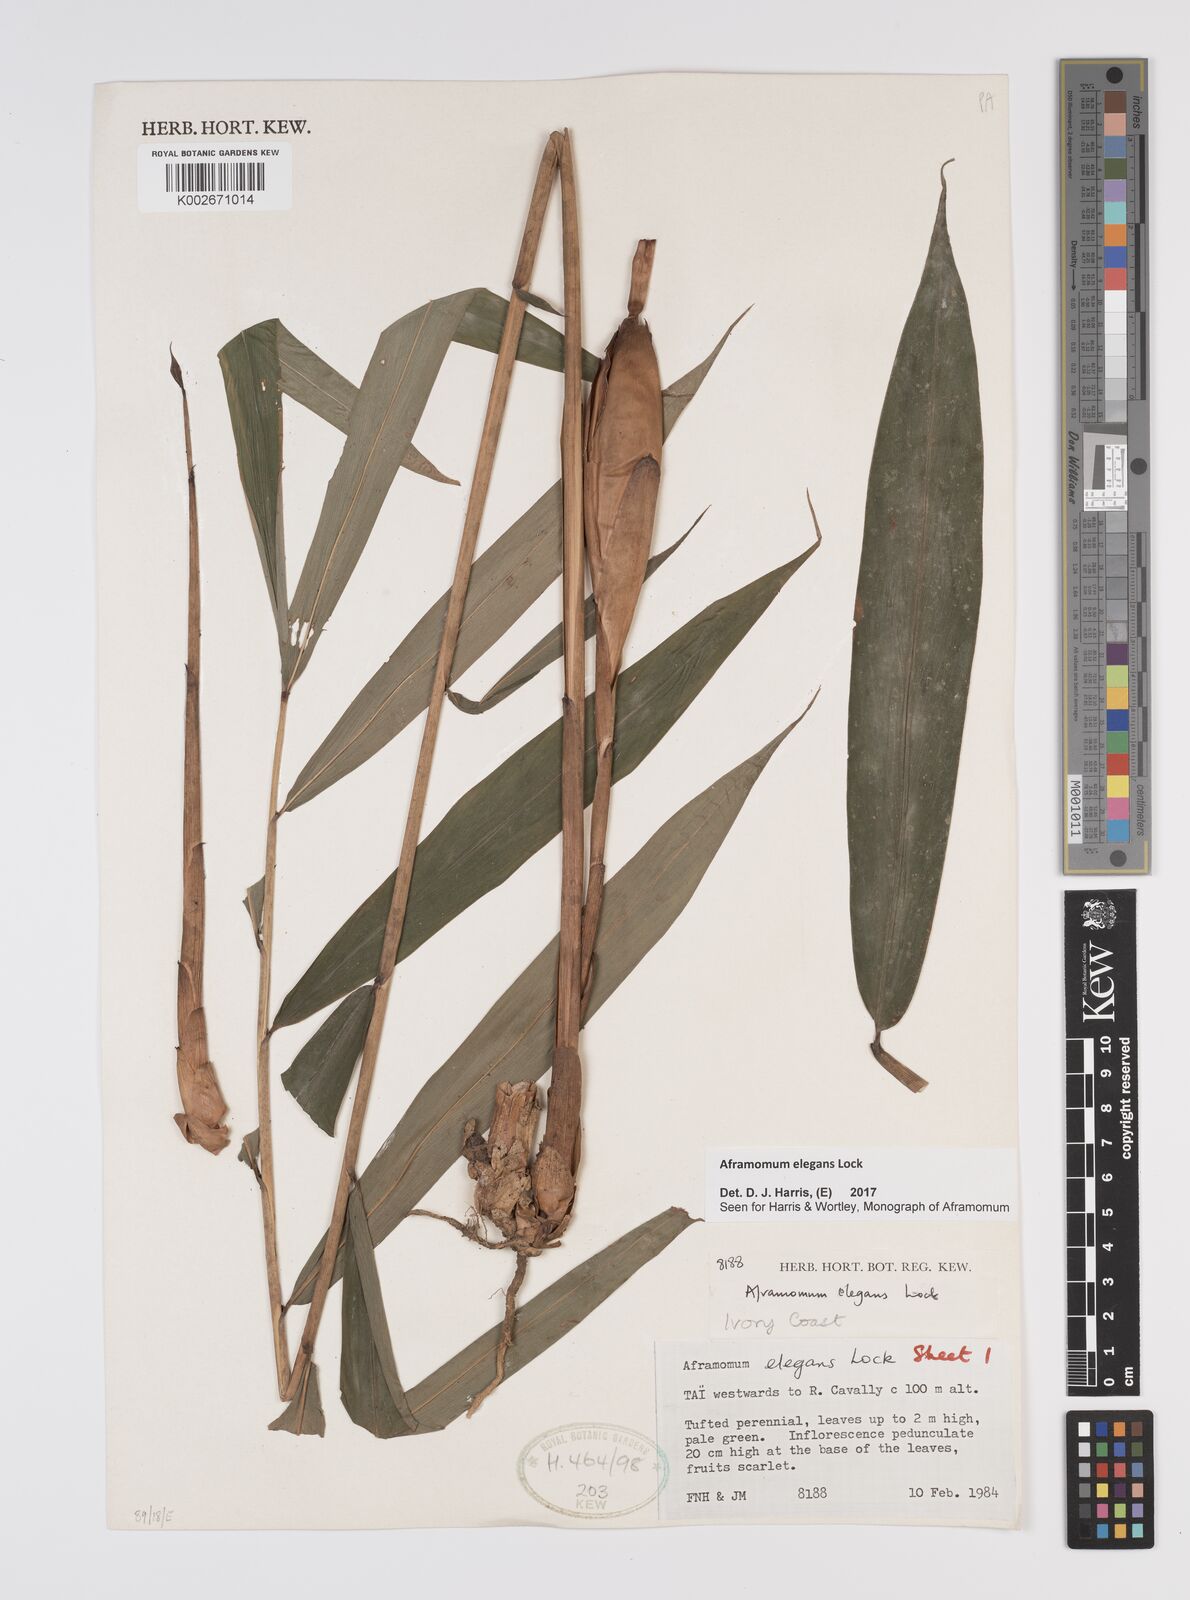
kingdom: Plantae
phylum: Tracheophyta
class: Liliopsida
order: Zingiberales
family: Zingiberaceae
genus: Aframomum
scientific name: Aframomum elegans
